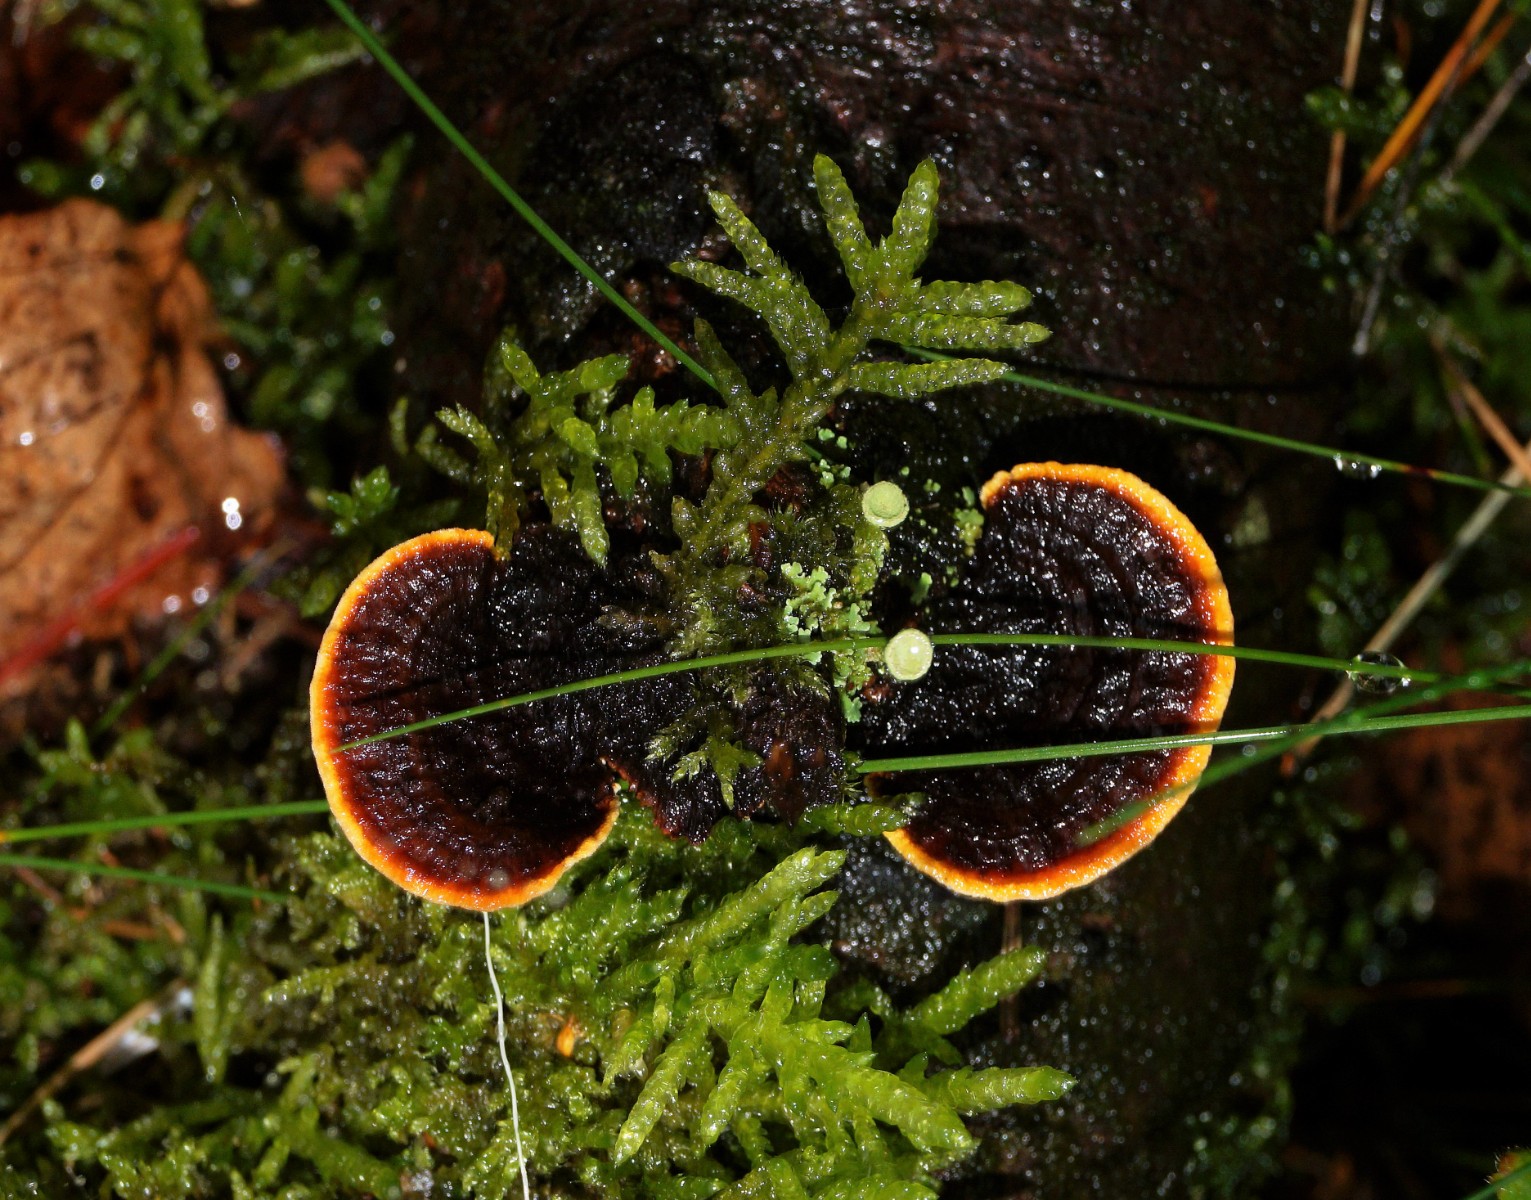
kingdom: Fungi
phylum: Basidiomycota
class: Agaricomycetes
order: Gloeophyllales
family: Gloeophyllaceae
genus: Gloeophyllum
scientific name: Gloeophyllum sepiarium
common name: fyrre-korkhat
